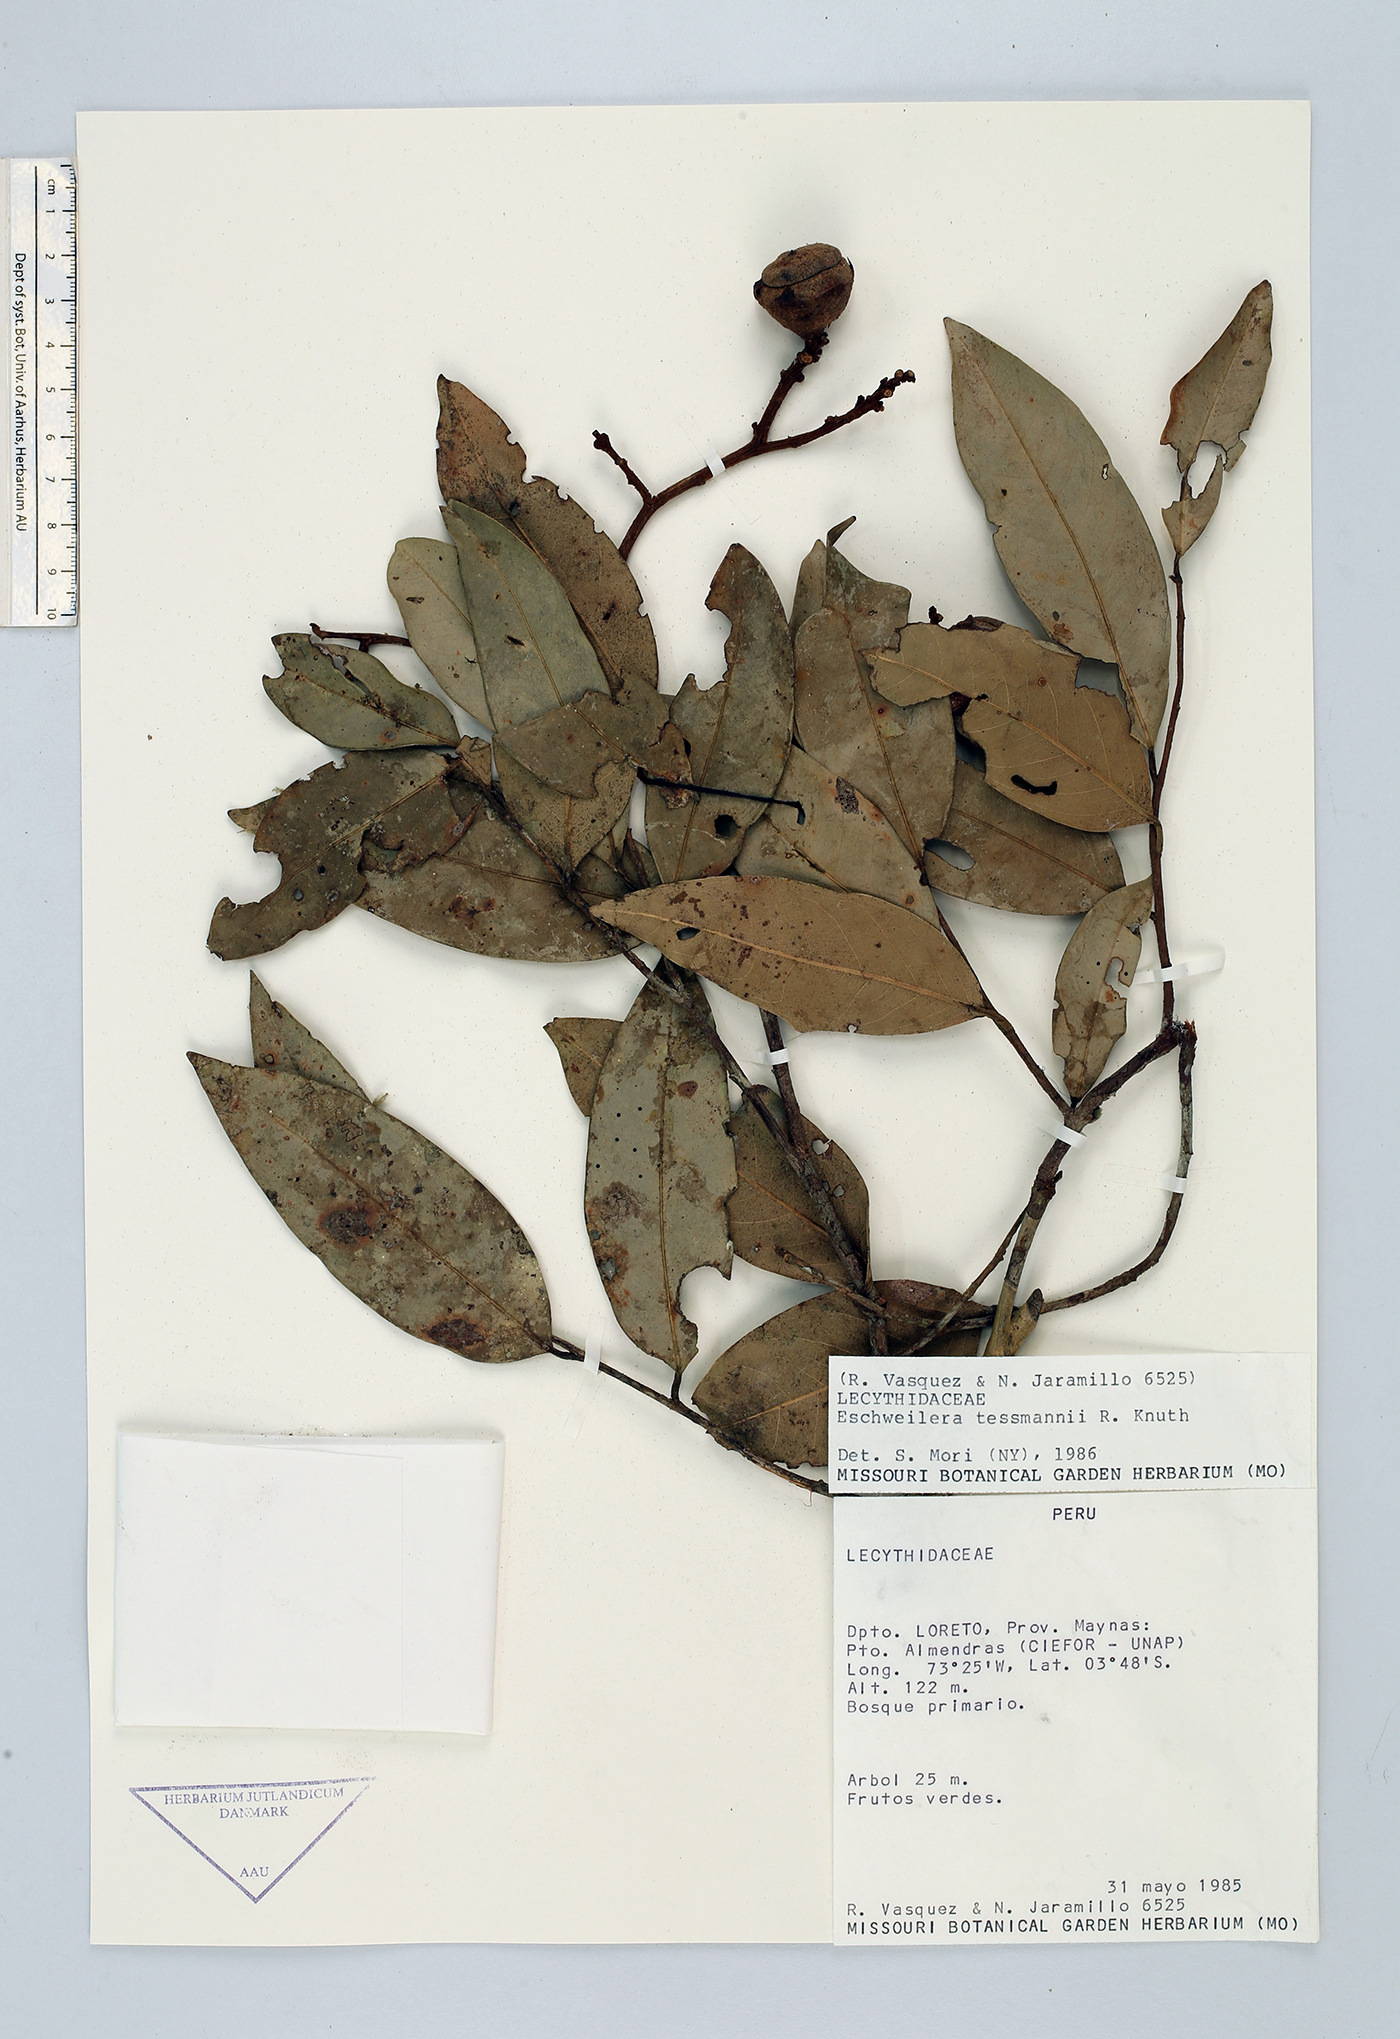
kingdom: Plantae
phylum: Tracheophyta
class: Magnoliopsida
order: Ericales
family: Lecythidaceae
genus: Eschweilera
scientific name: Eschweilera tessmannii
